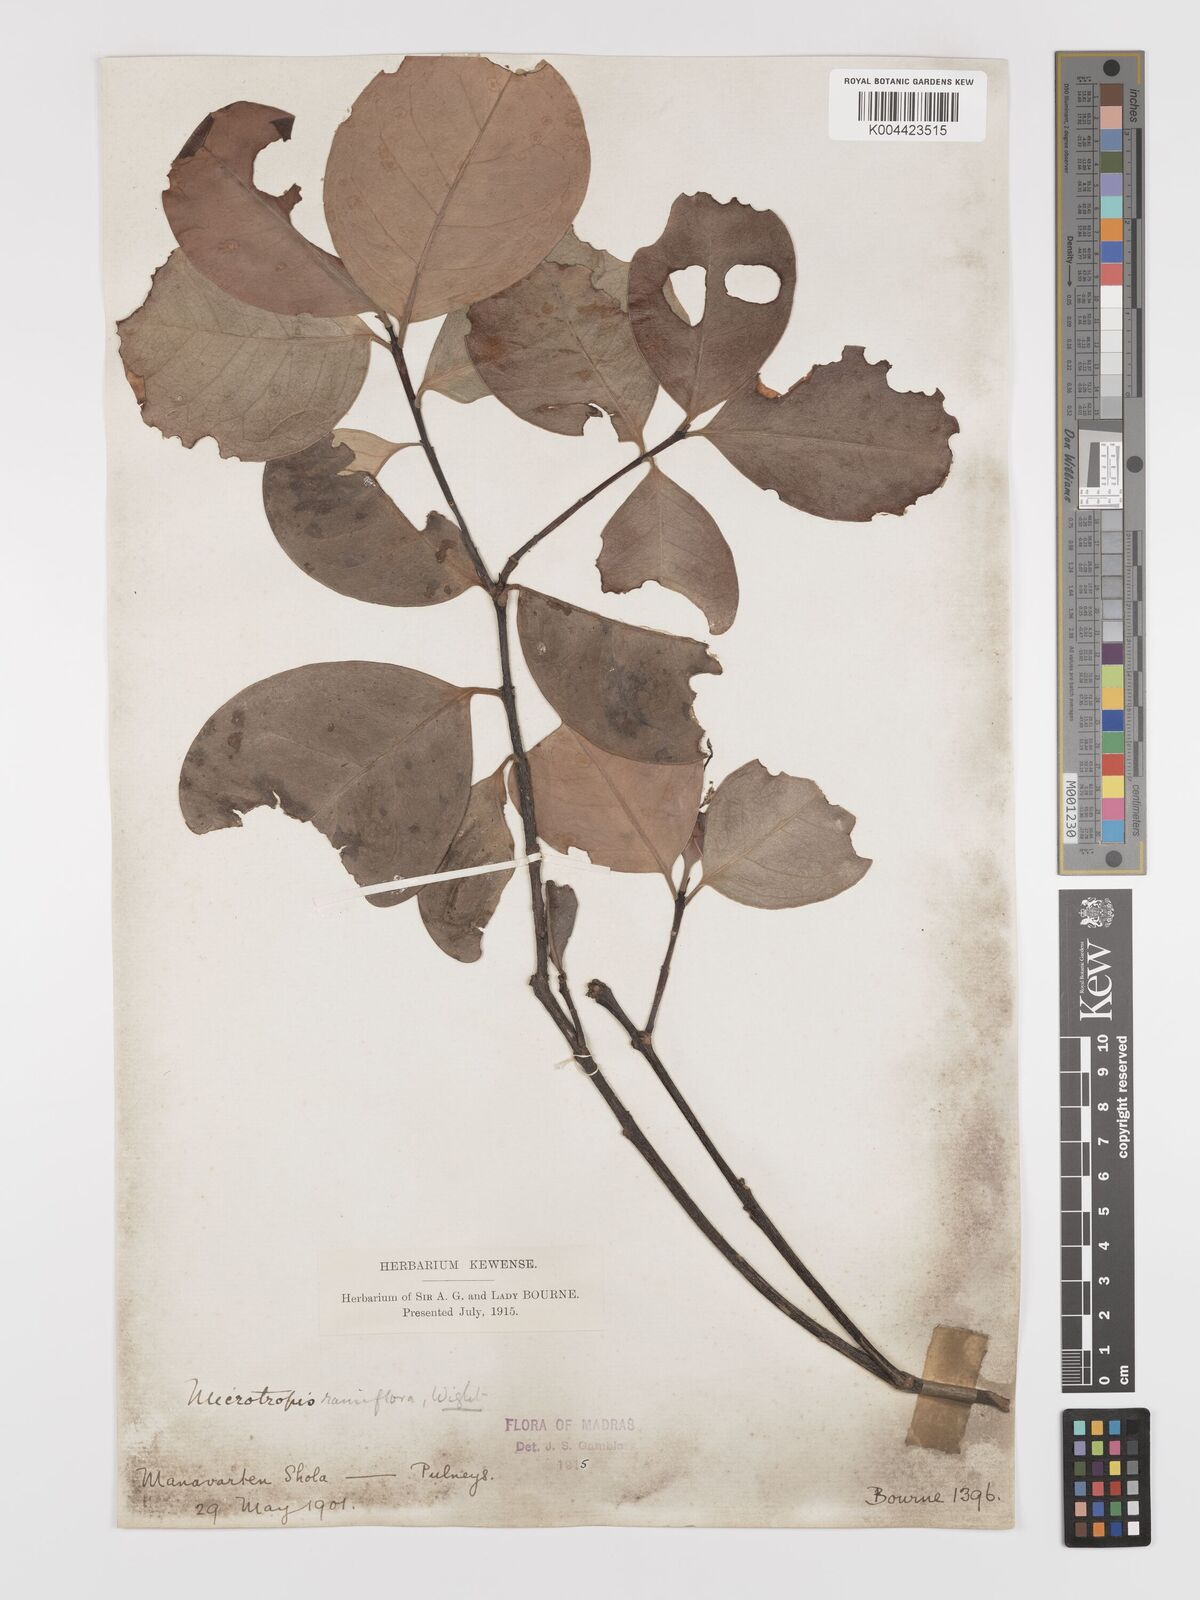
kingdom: Plantae
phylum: Tracheophyta
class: Magnoliopsida
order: Celastrales
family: Celastraceae
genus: Microtropis
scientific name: Microtropis ramiflora
